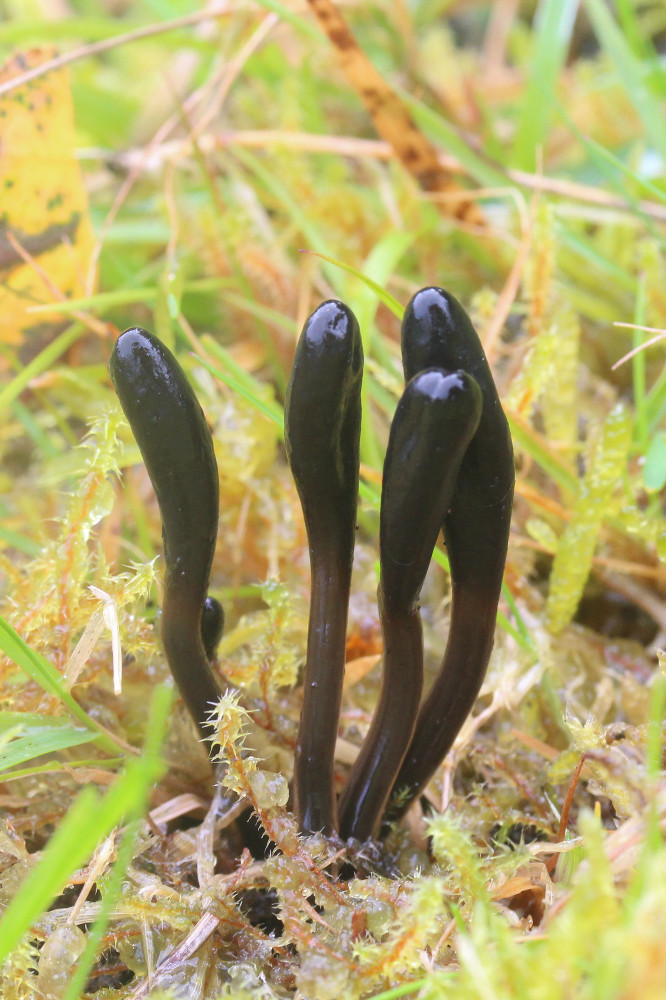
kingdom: Fungi
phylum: Ascomycota
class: Geoglossomycetes
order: Geoglossales
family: Geoglossaceae
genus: Glutinoglossum
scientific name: Glutinoglossum glutinosum
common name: slimet jordtunge
